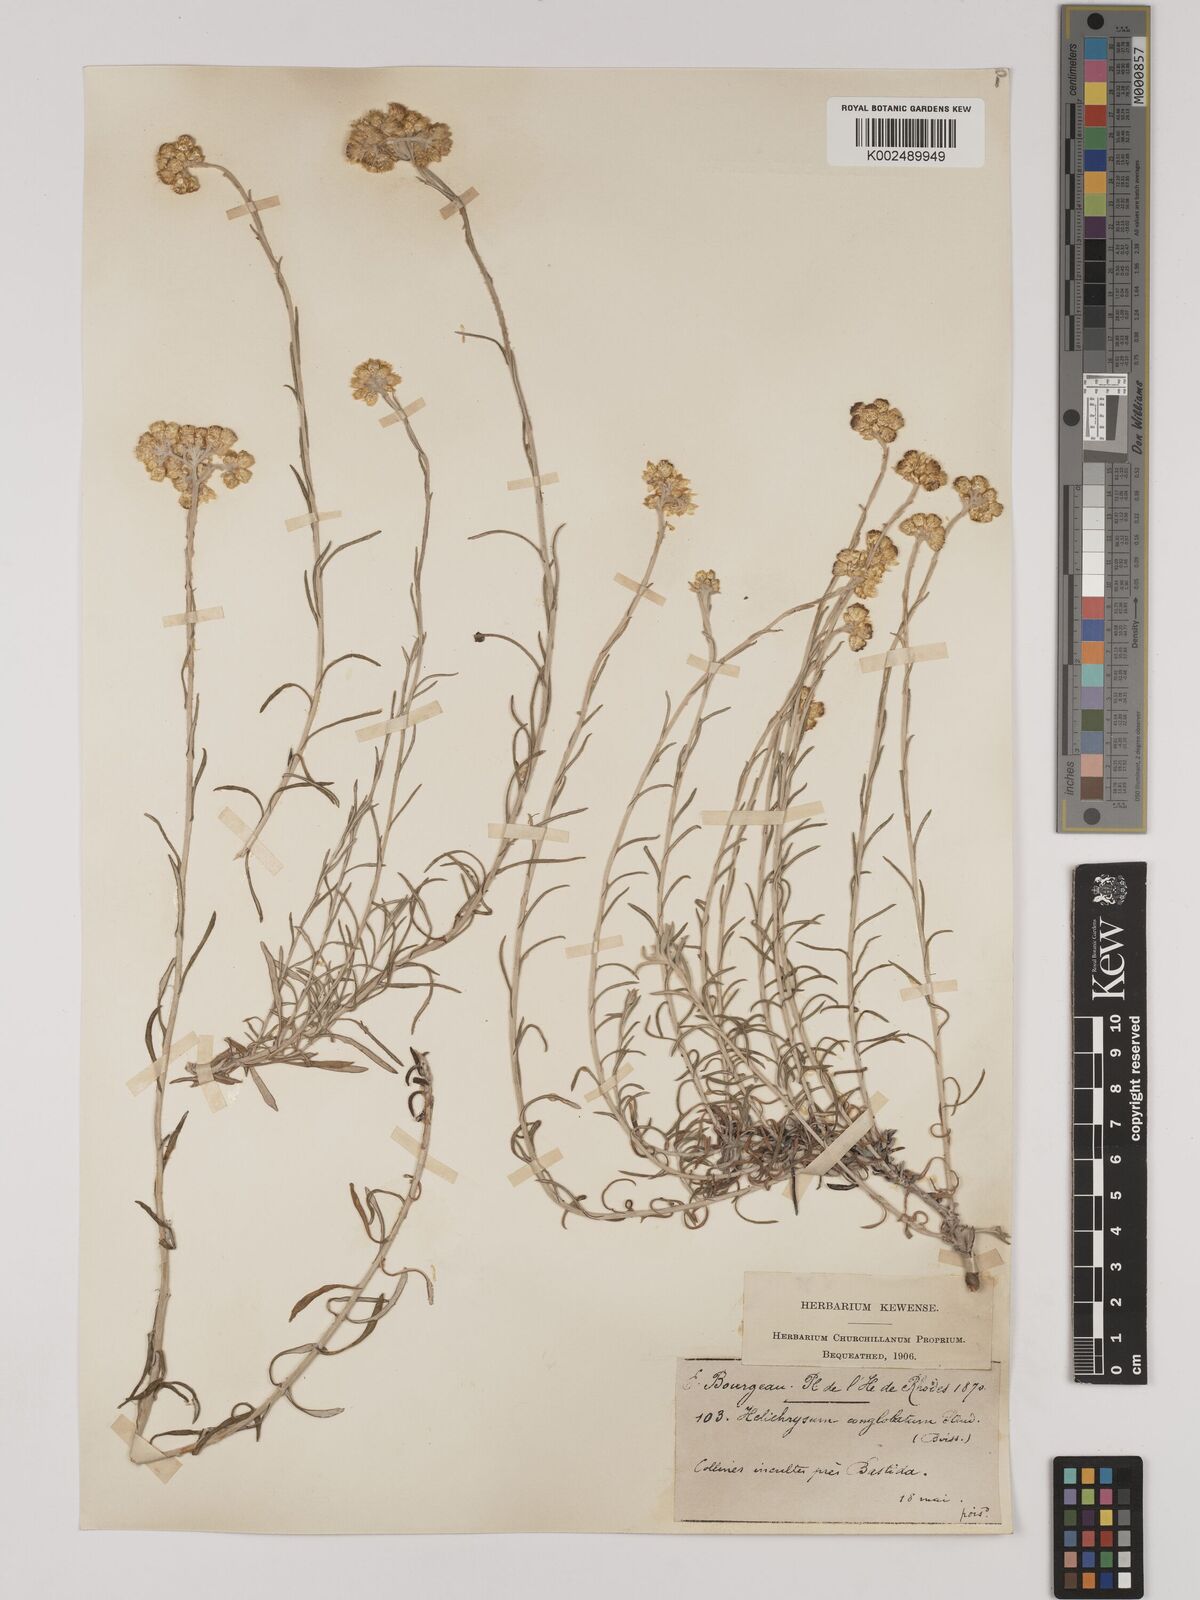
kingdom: Plantae
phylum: Tracheophyta
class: Magnoliopsida
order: Asterales
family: Asteraceae
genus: Helichrysum
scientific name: Helichrysum italicum
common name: Curryplant
